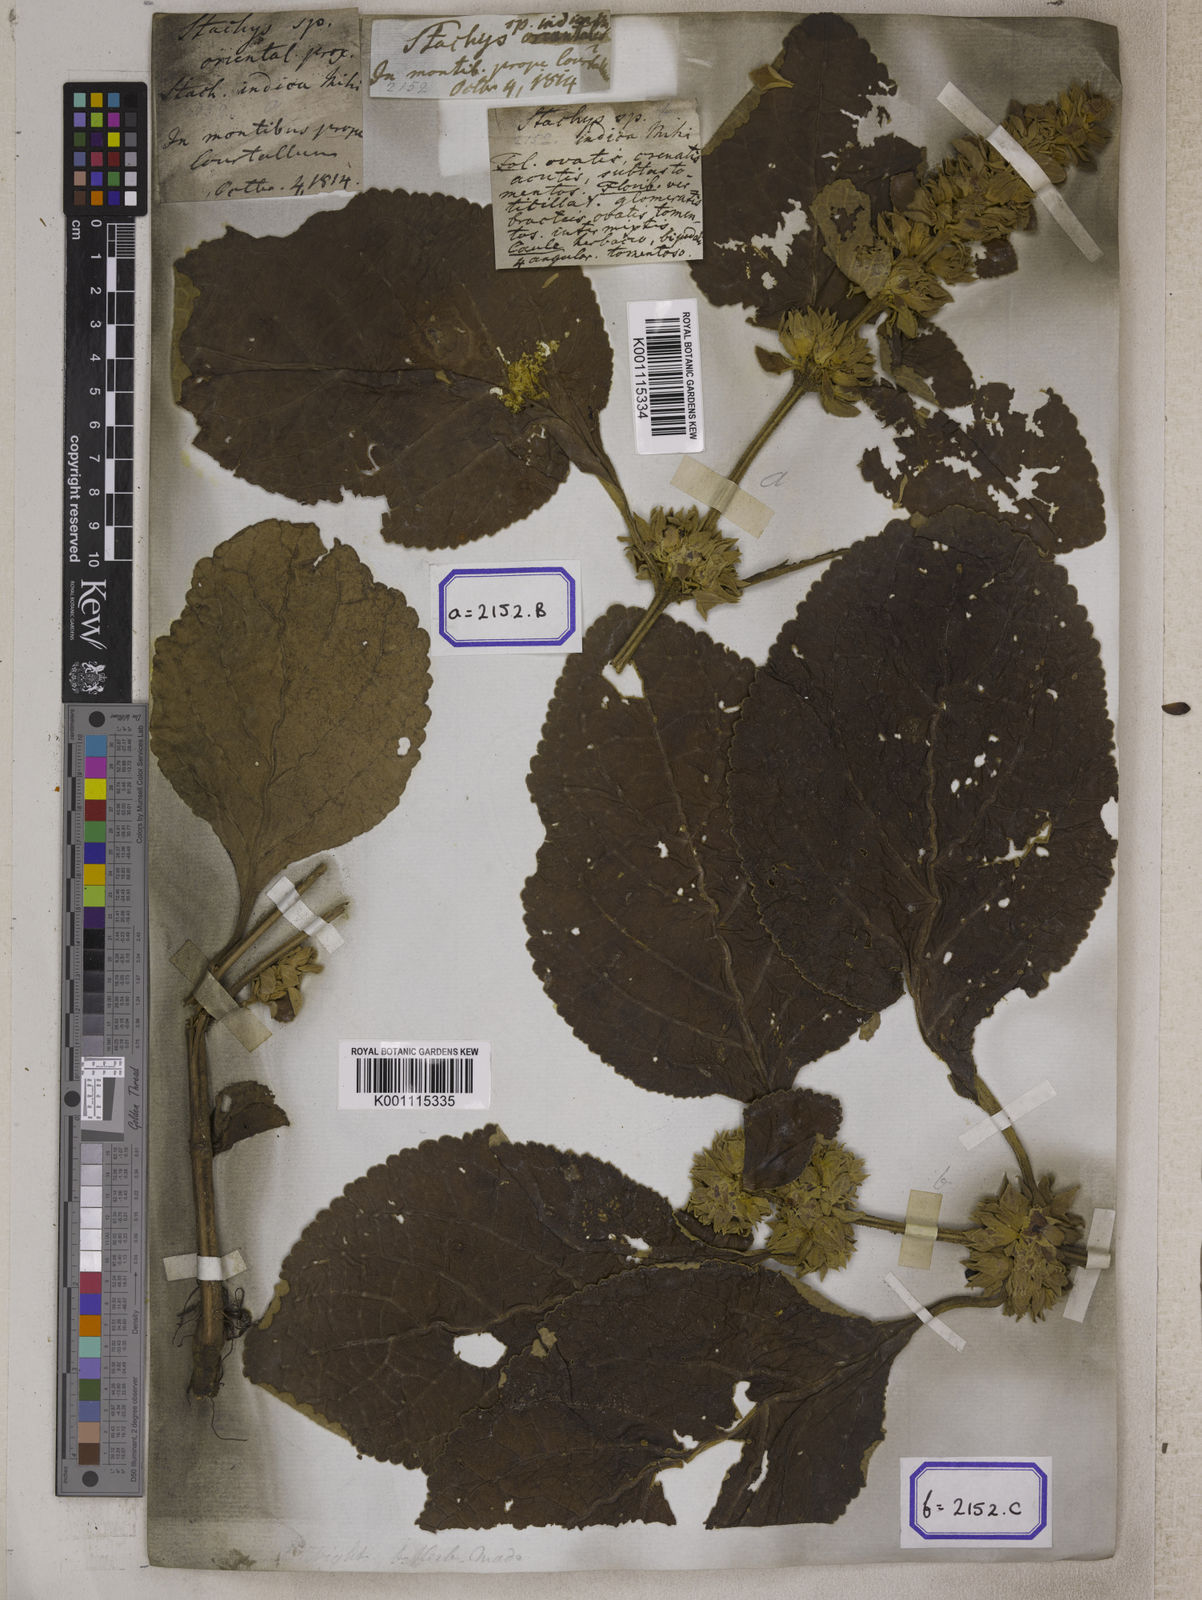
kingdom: Plantae
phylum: Tracheophyta
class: Magnoliopsida
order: Lamiales
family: Lamiaceae
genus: Gomphostemma
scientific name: Gomphostemma
